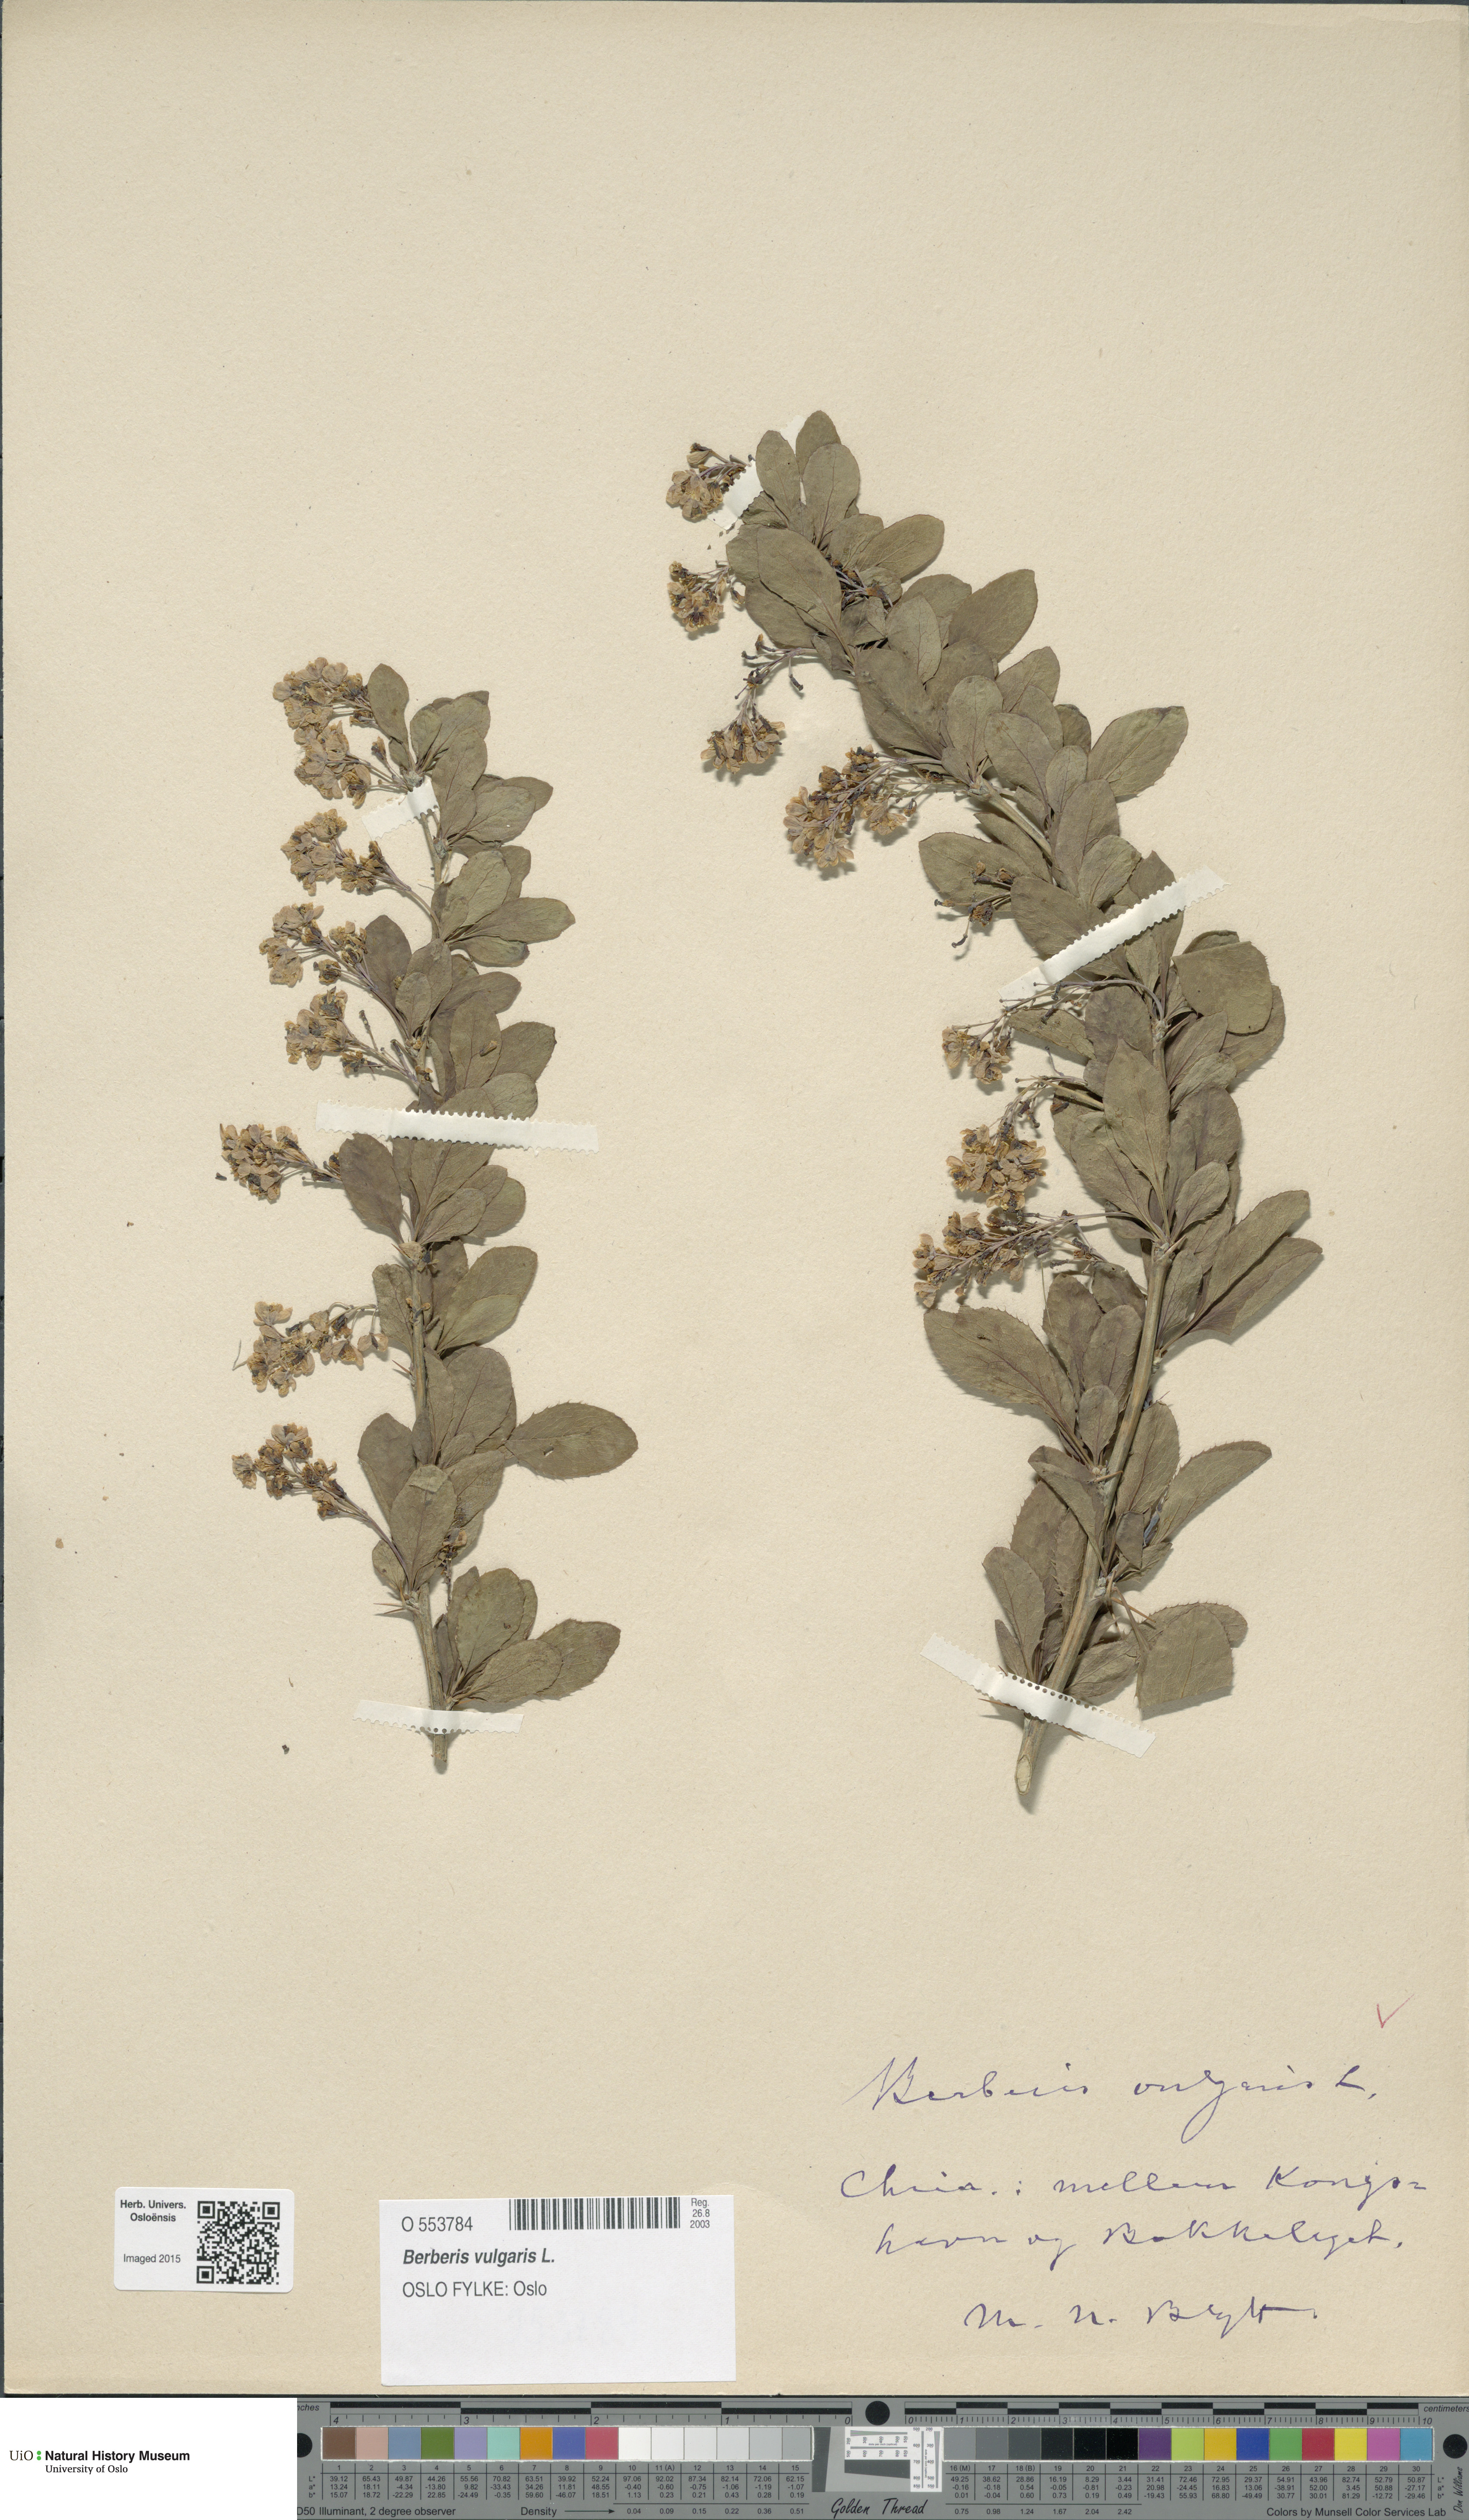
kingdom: Plantae
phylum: Tracheophyta
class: Magnoliopsida
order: Ranunculales
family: Berberidaceae
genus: Berberis
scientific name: Berberis vulgaris
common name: Barberry
